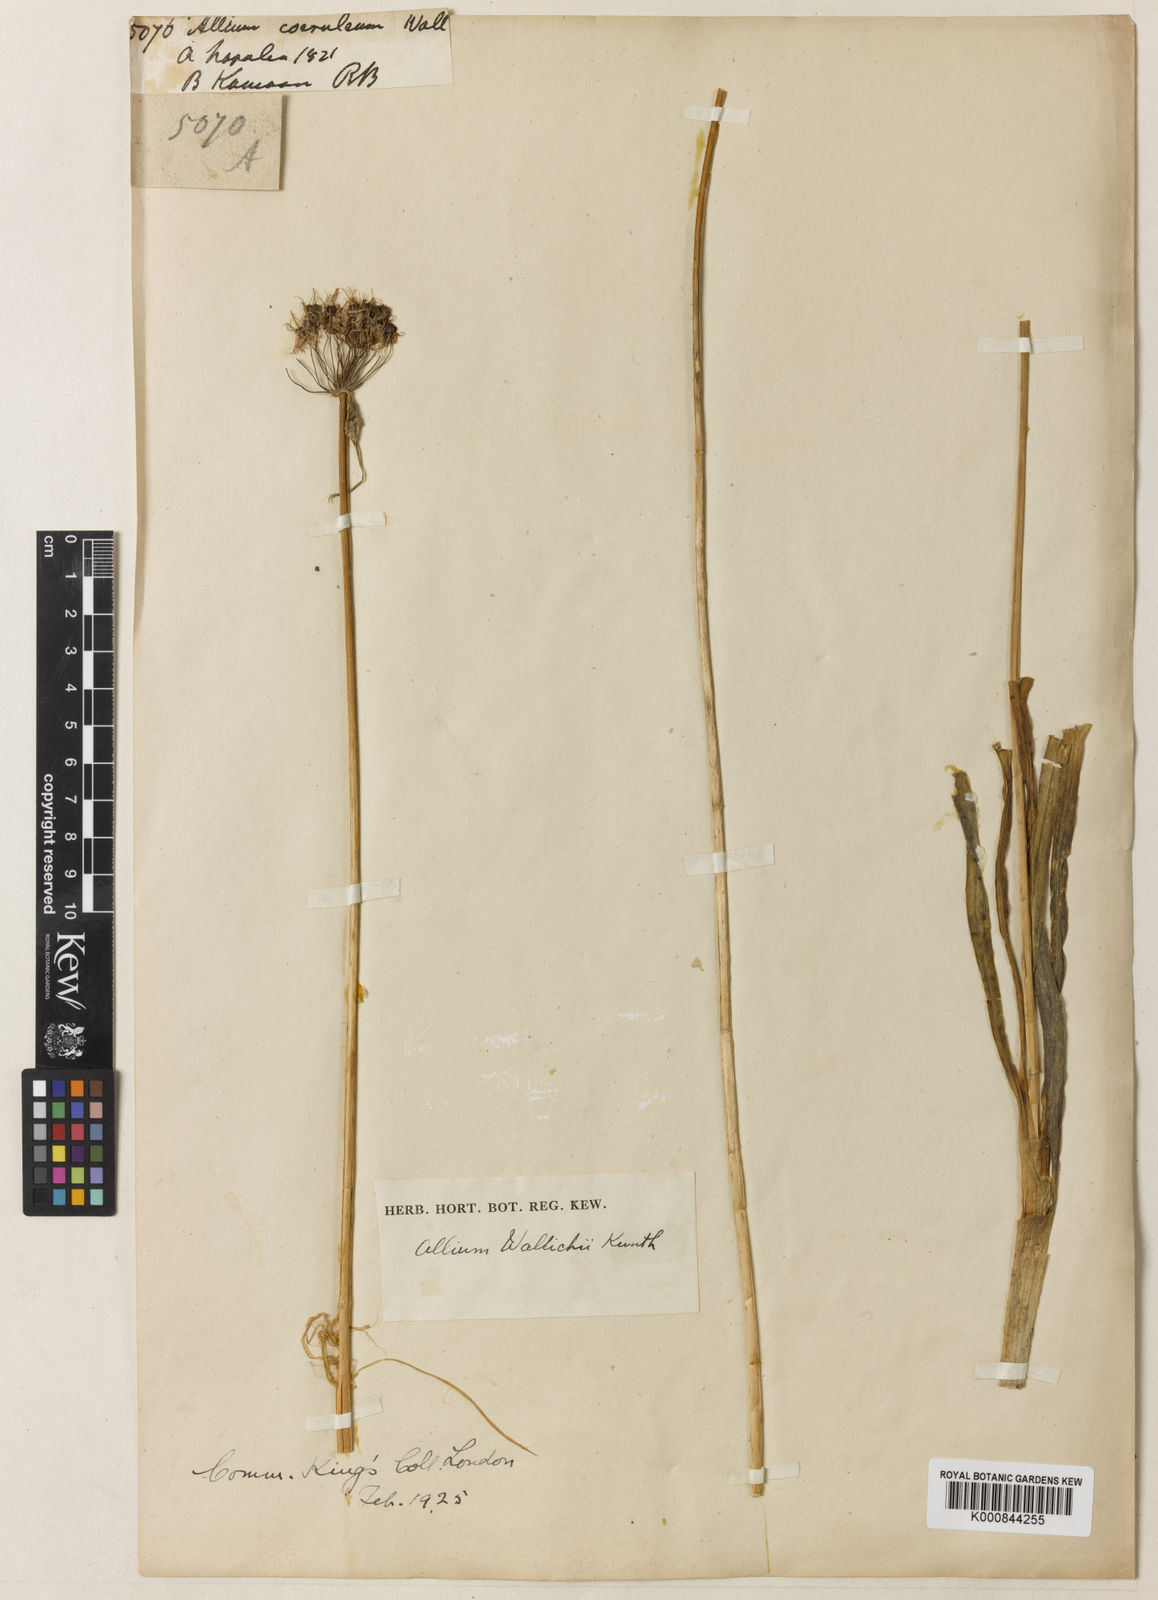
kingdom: Plantae
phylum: Tracheophyta
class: Liliopsida
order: Asparagales
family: Amaryllidaceae
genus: Allium
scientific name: Allium wallichii
